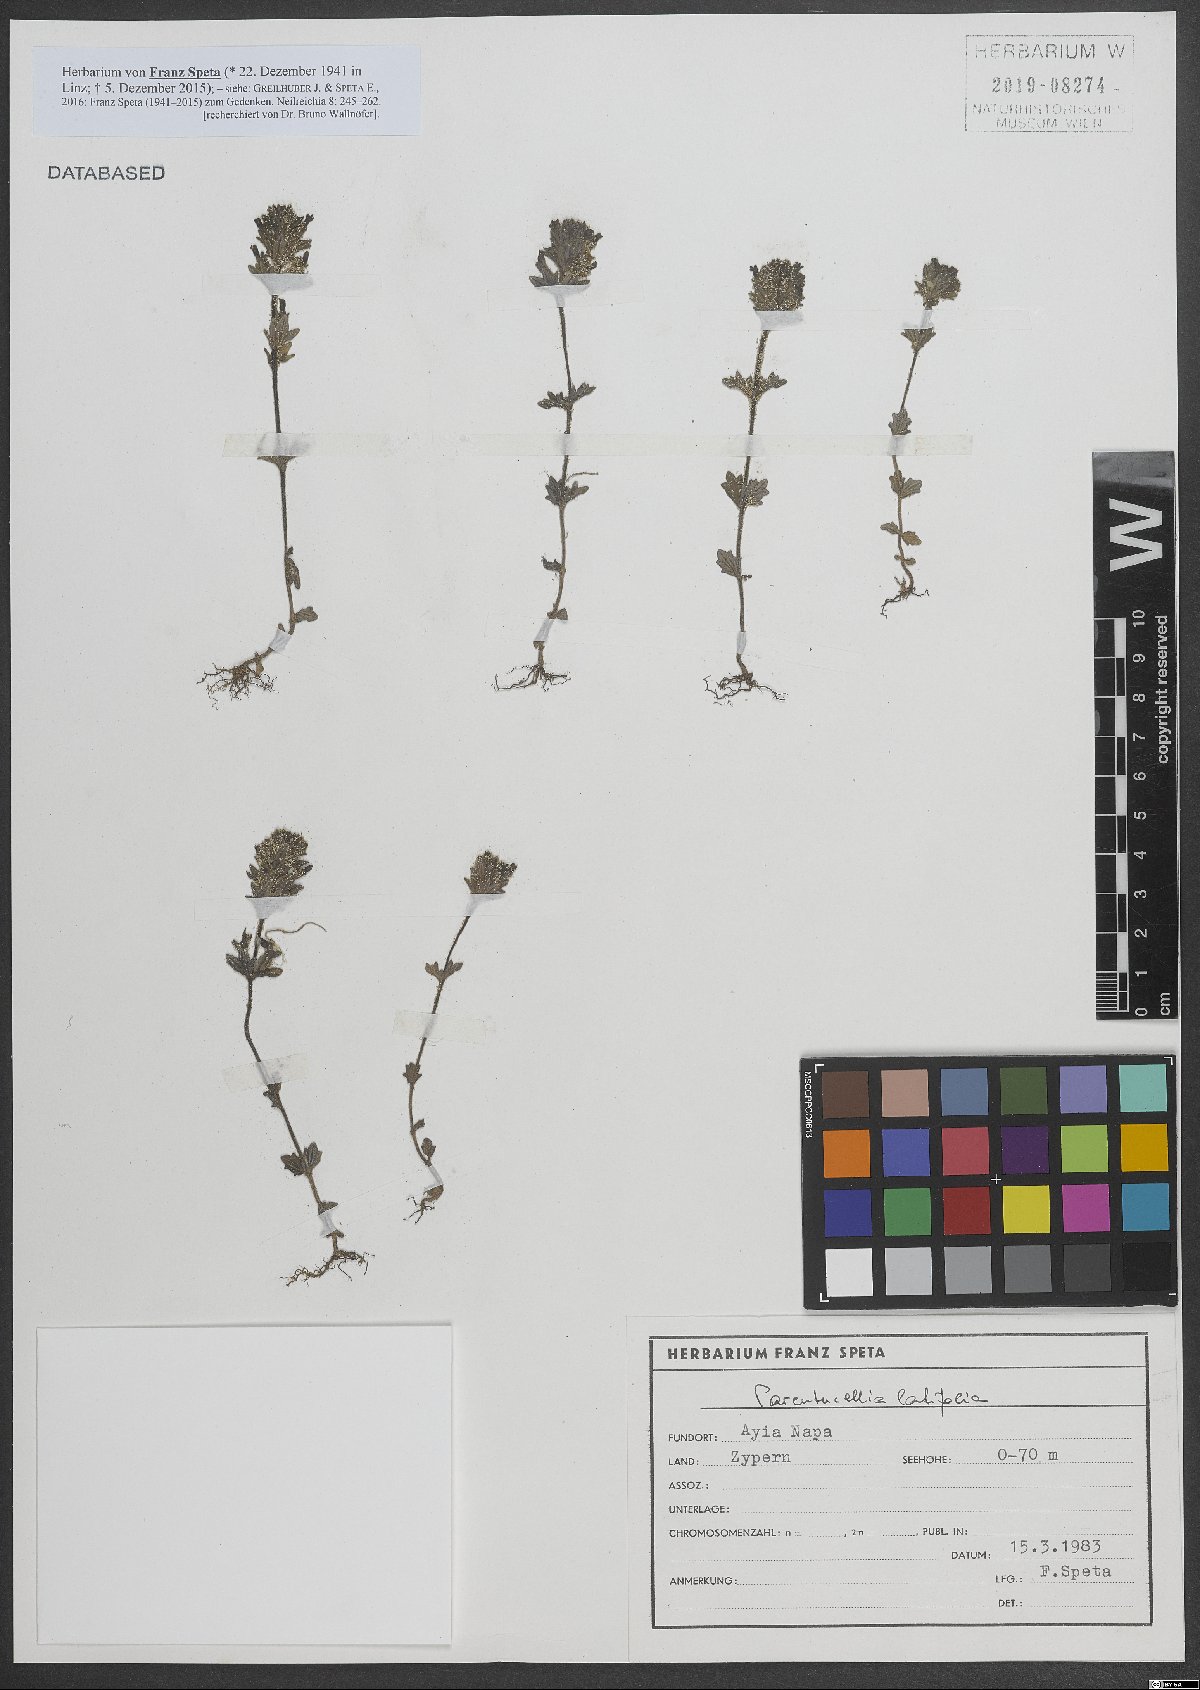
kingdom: Plantae
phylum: Tracheophyta
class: Magnoliopsida
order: Lamiales
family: Orobanchaceae
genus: Parentucellia
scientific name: Parentucellia latifolia
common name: Broadleaf glandweed
